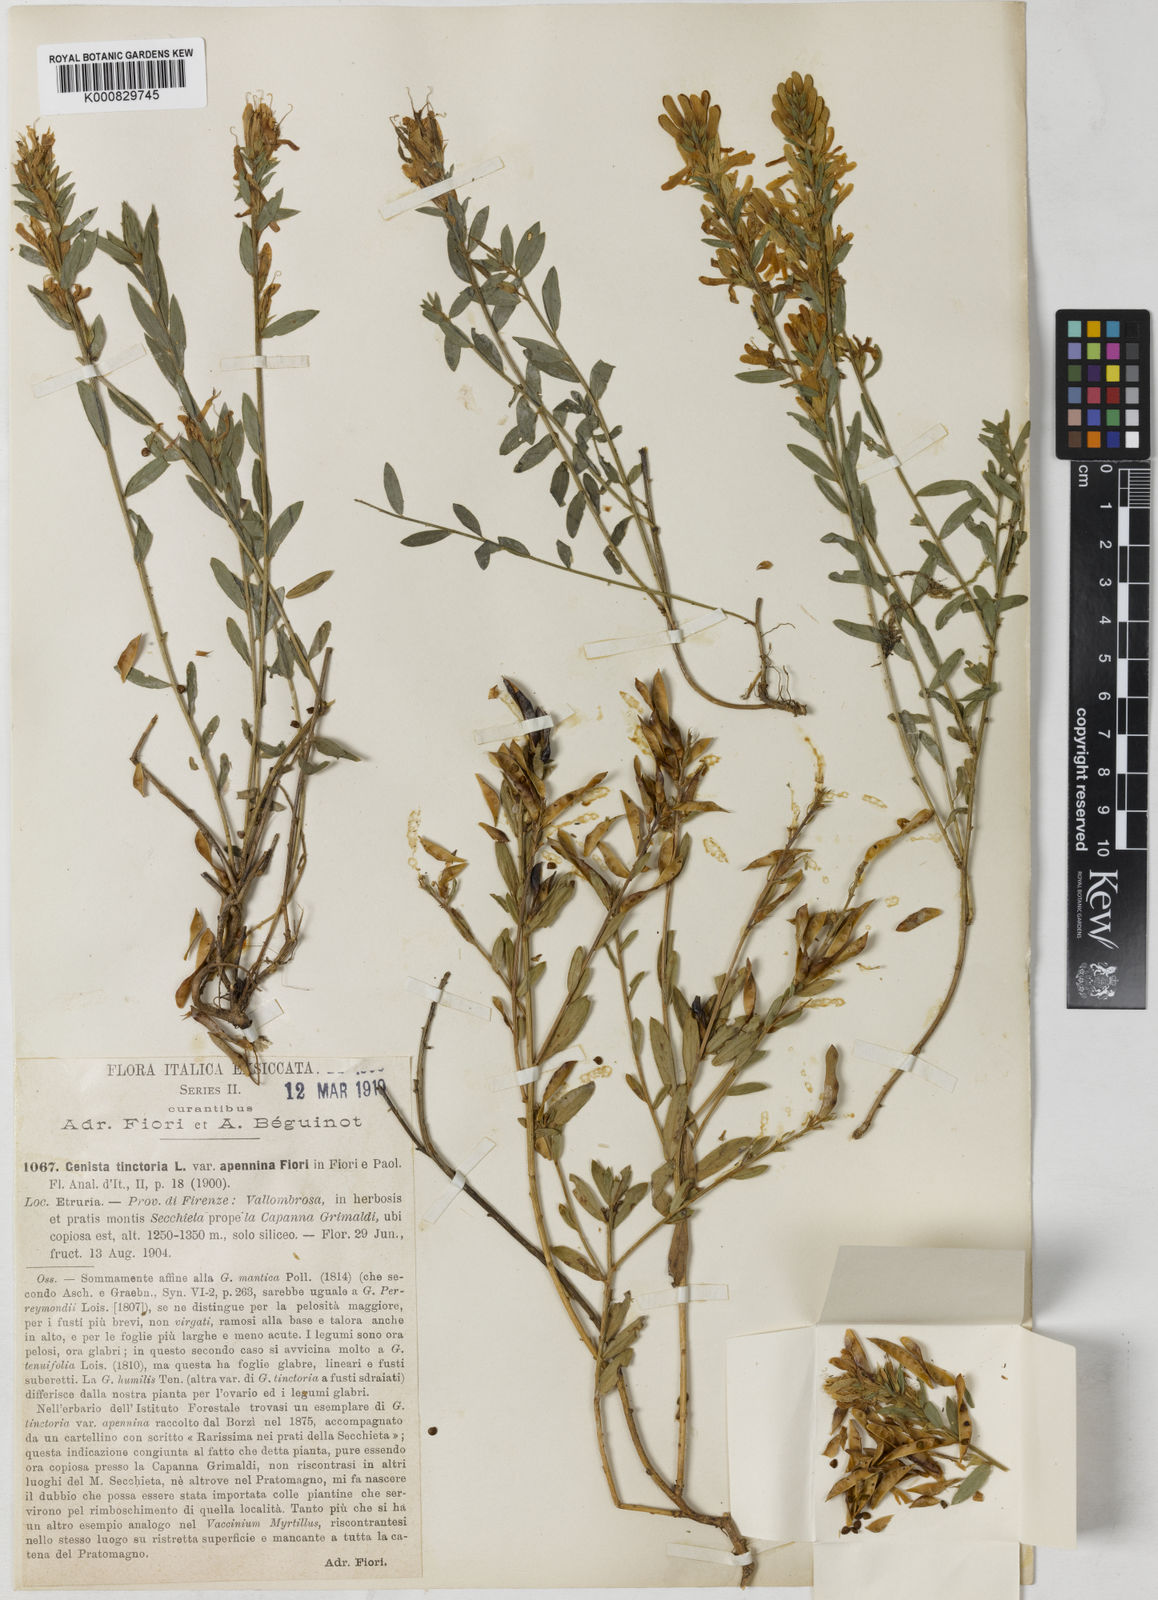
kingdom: Plantae
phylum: Tracheophyta
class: Magnoliopsida
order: Fabales
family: Fabaceae
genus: Genista
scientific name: Genista tinctoria
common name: Dyer's greenweed
